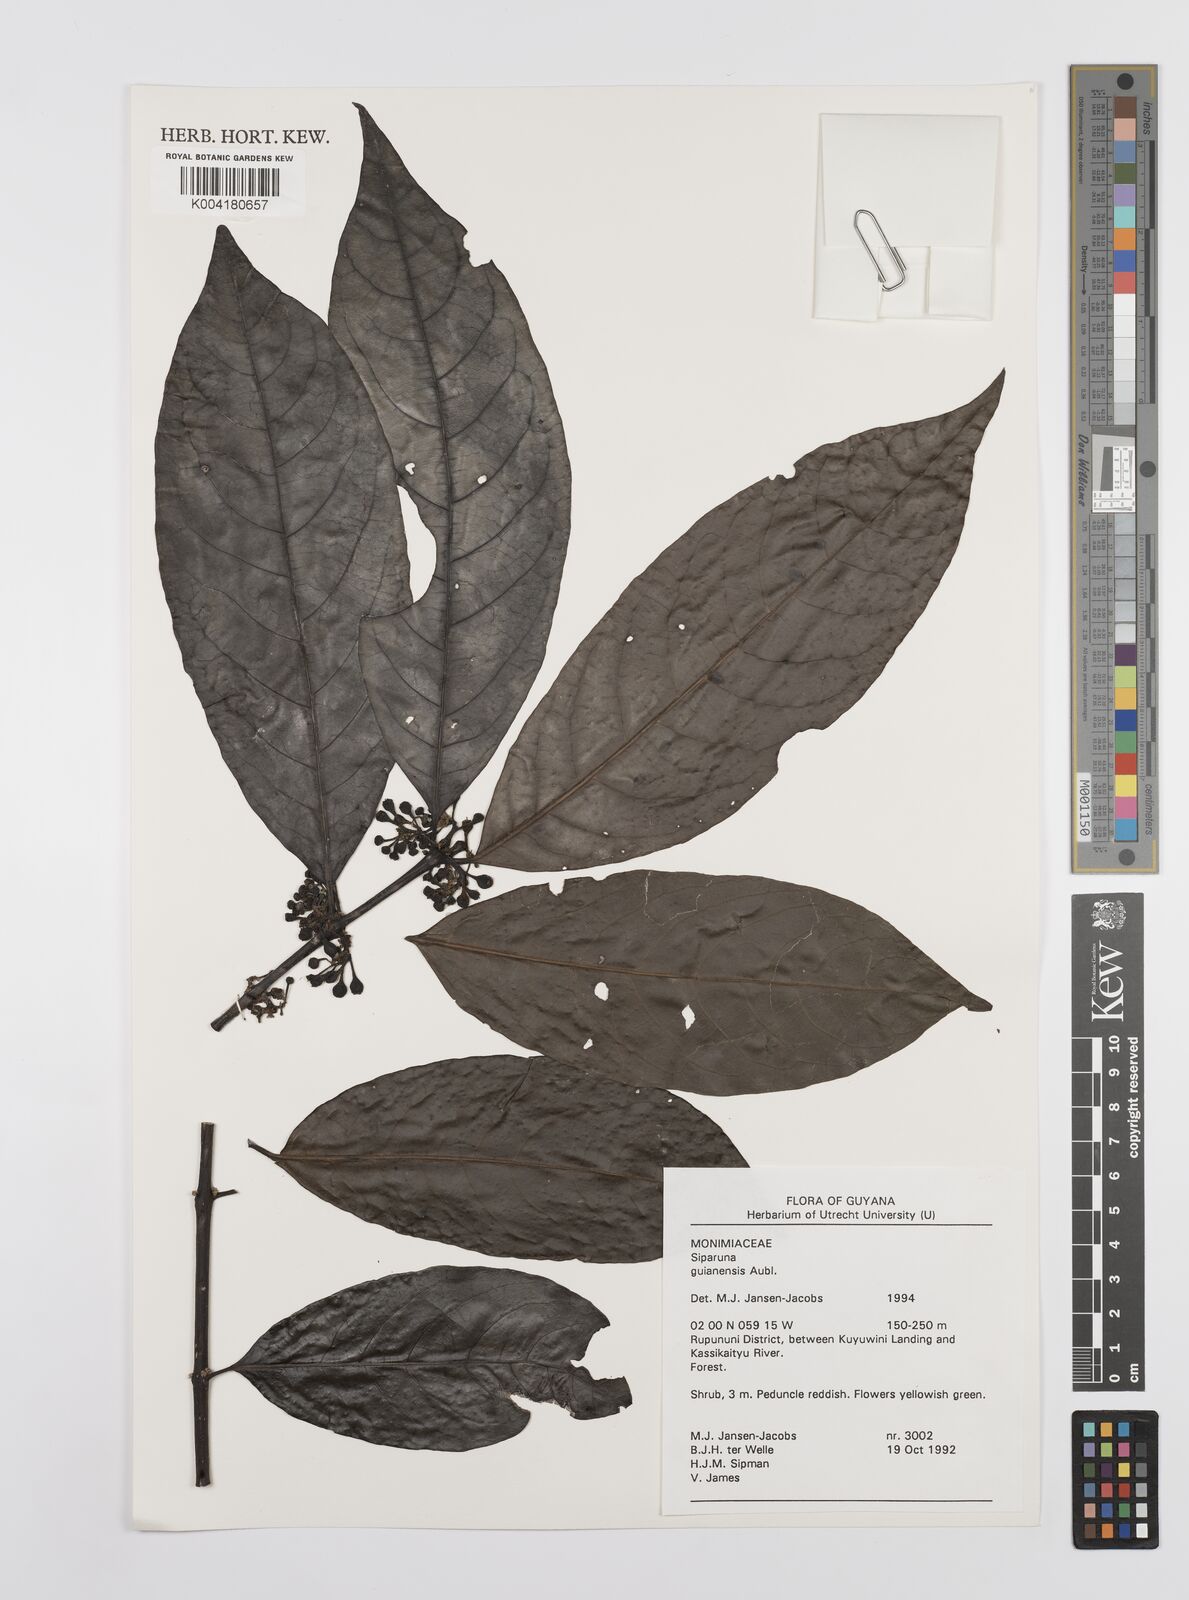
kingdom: Plantae
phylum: Tracheophyta
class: Magnoliopsida
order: Laurales
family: Siparunaceae
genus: Siparuna
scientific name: Siparuna guianensis
